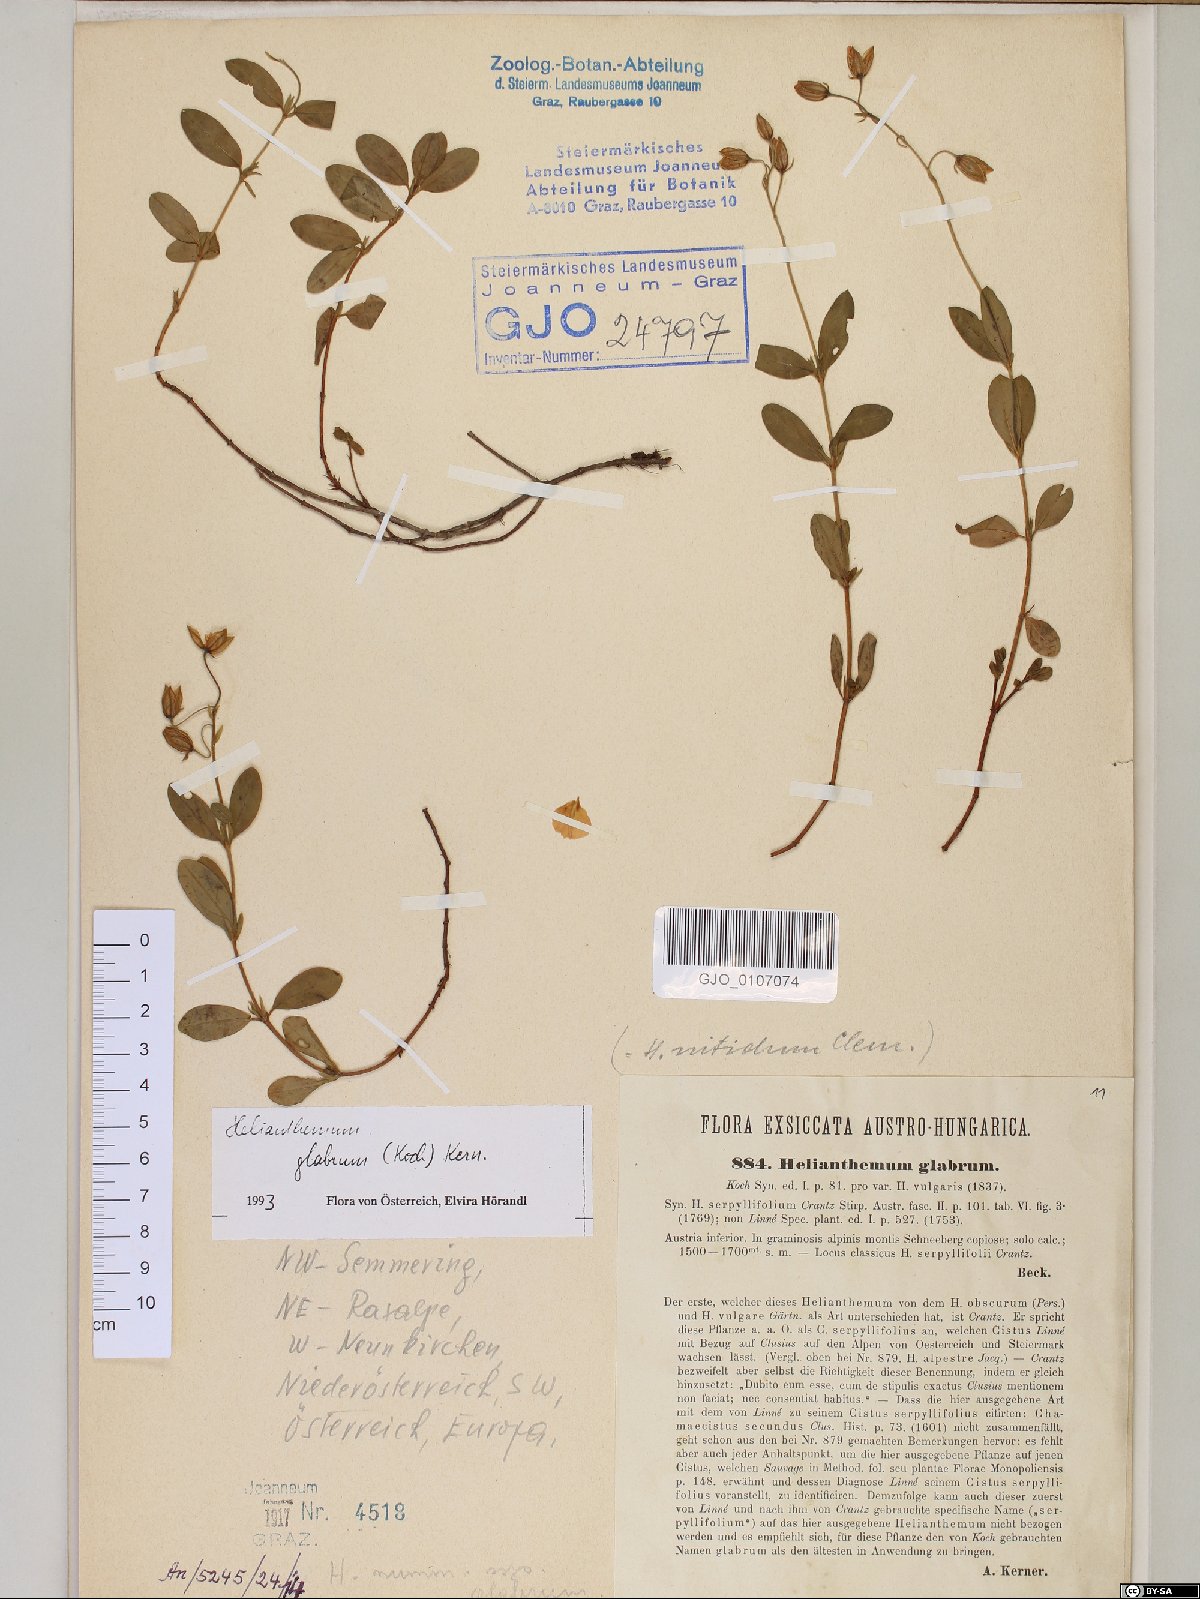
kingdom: Plantae
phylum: Tracheophyta
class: Magnoliopsida
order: Malvales
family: Cistaceae
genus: Helianthemum
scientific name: Helianthemum nummularium
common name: Common rock-rose
